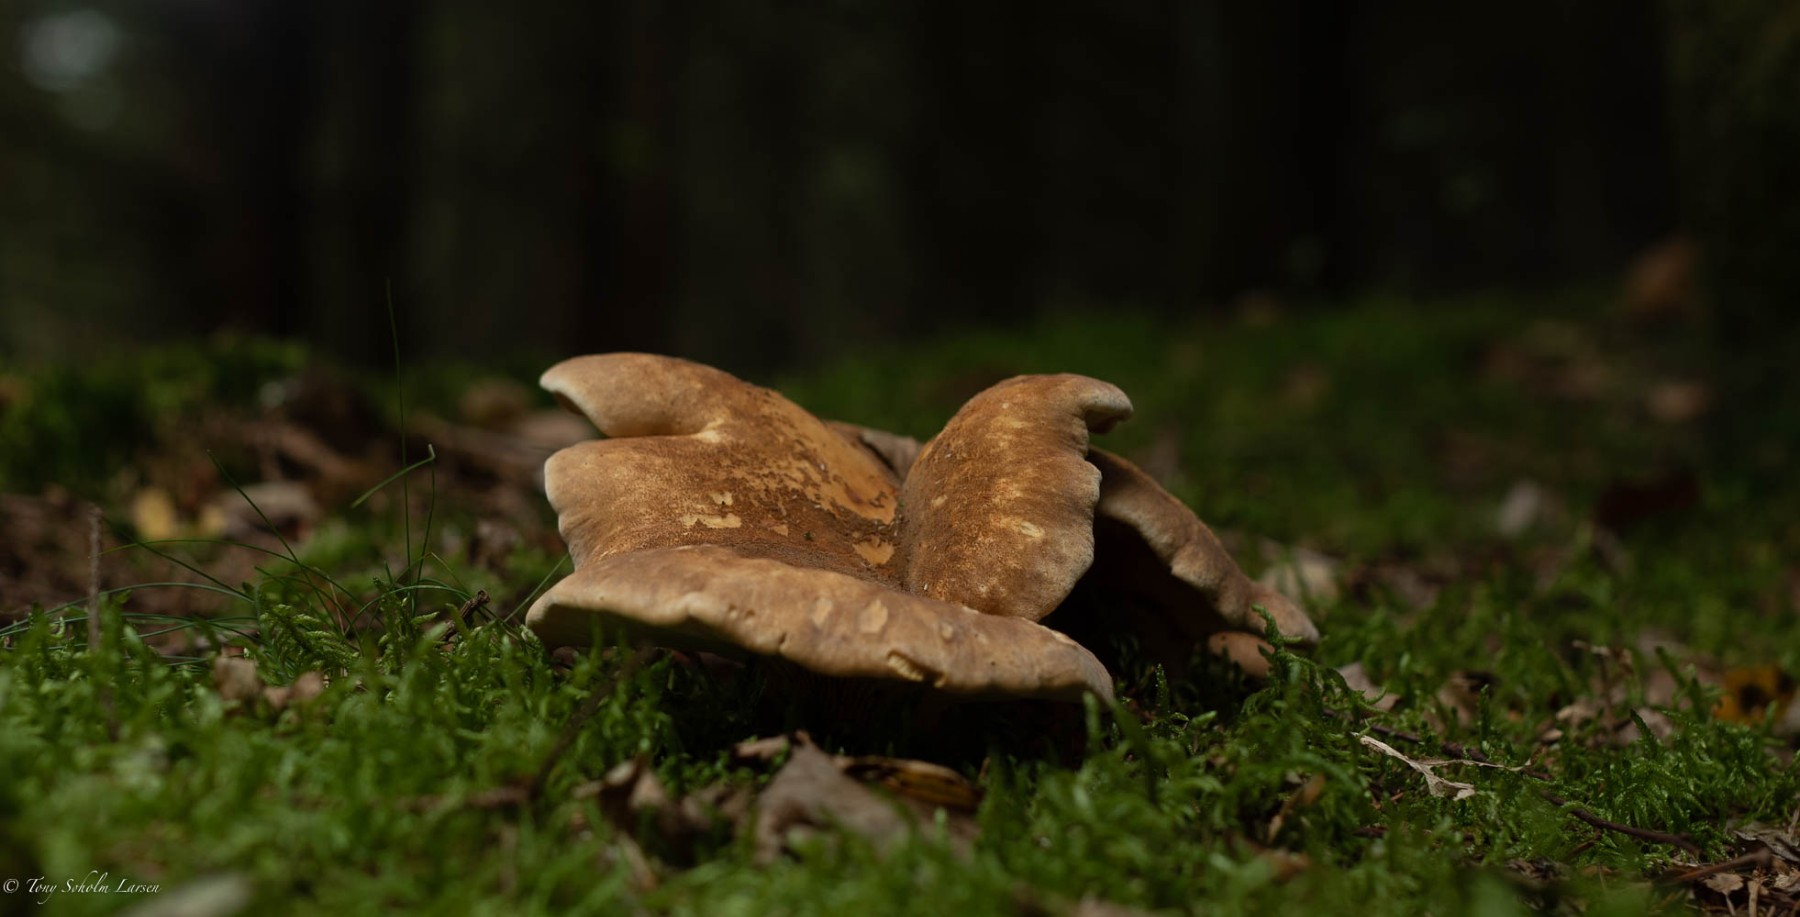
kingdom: Fungi
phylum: Basidiomycota
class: Agaricomycetes
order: Boletales
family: Tapinellaceae
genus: Tapinella
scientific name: Tapinella atrotomentosa
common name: sortfiltet viftesvamp
